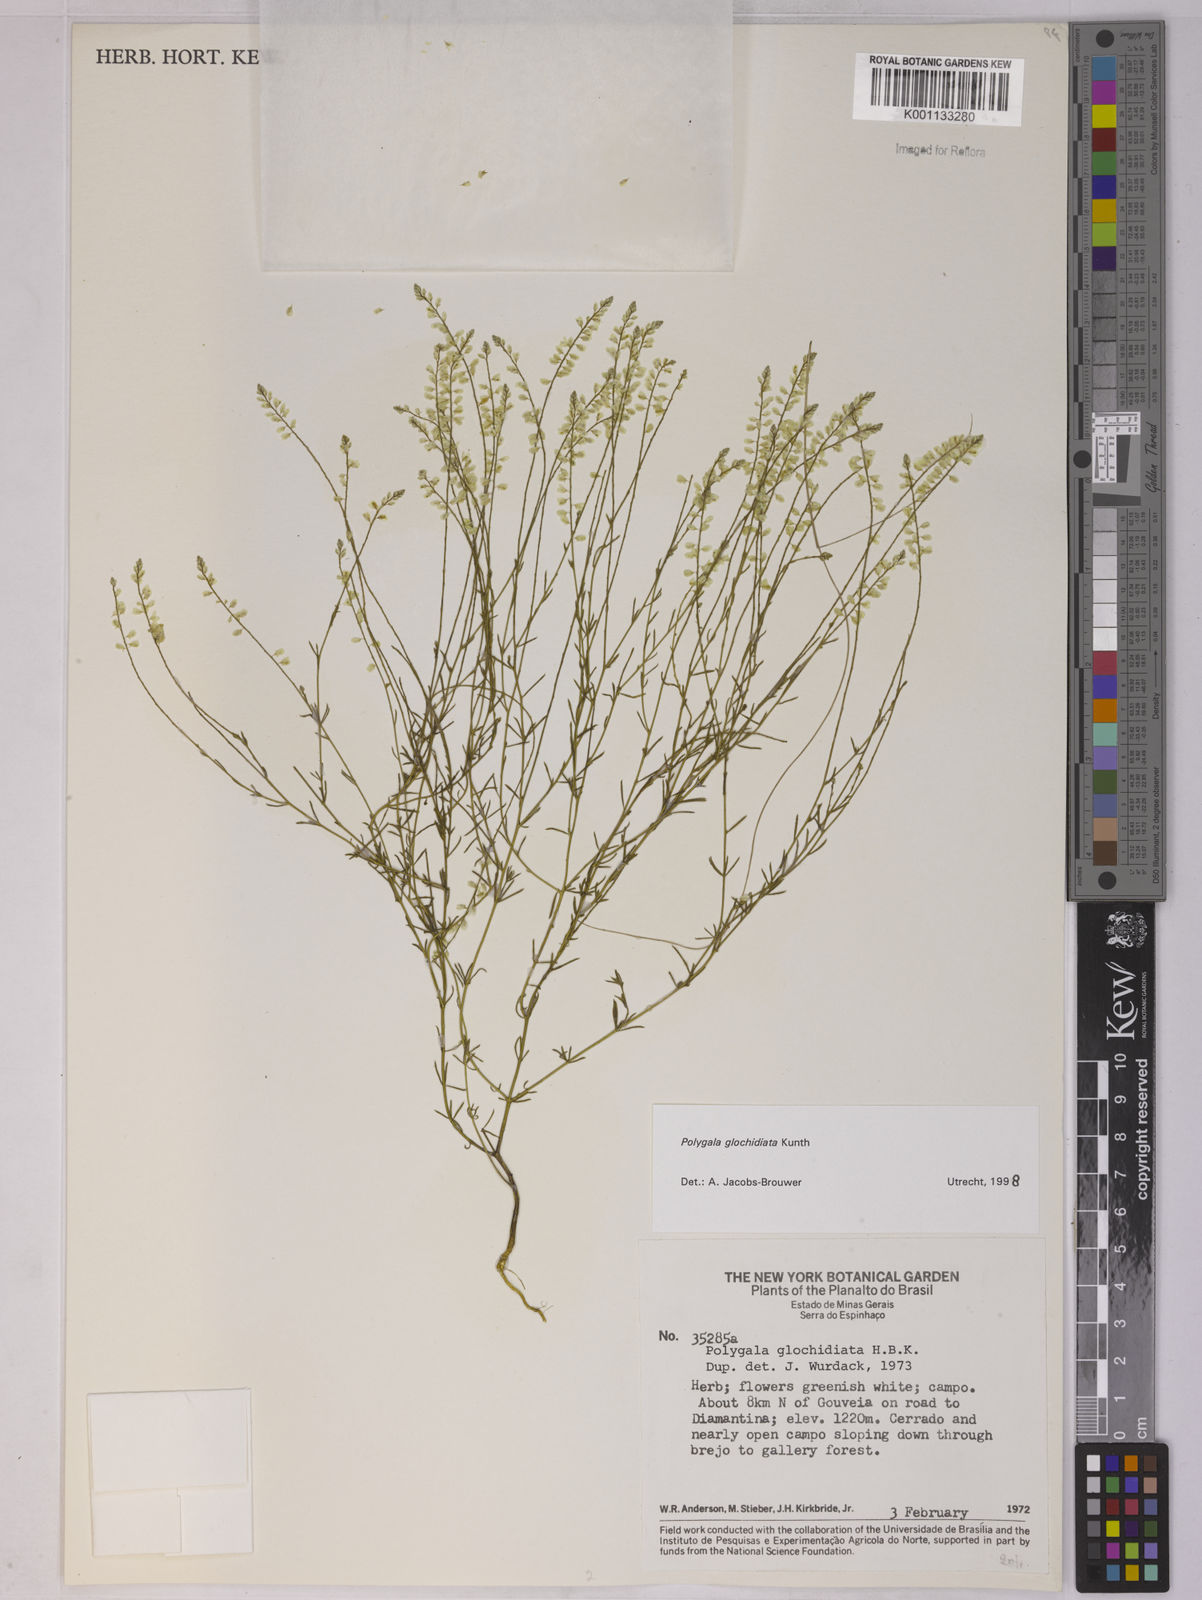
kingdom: Plantae
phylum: Tracheophyta
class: Magnoliopsida
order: Fabales
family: Polygalaceae
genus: Polygala
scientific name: Polygala glochidiata
